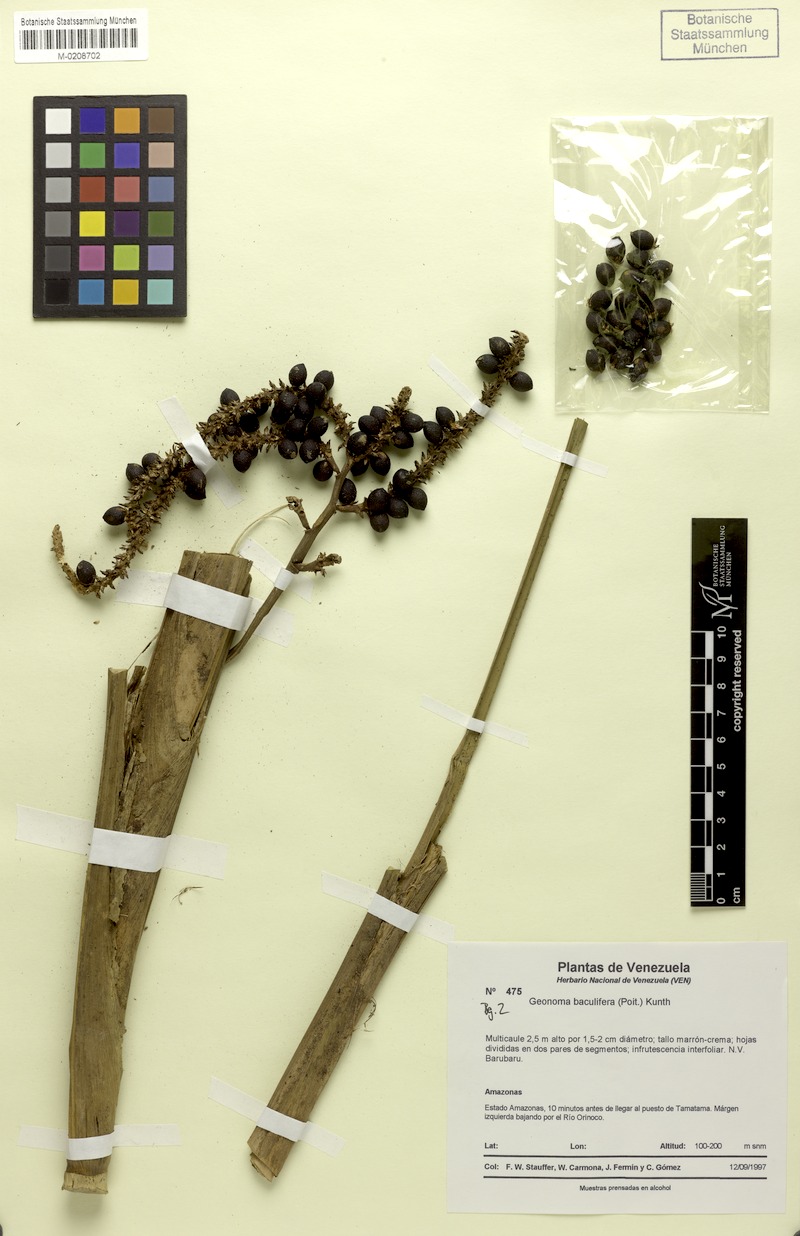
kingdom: Plantae
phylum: Tracheophyta
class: Liliopsida
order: Arecales
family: Arecaceae
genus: Geonoma
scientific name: Geonoma baculifera
